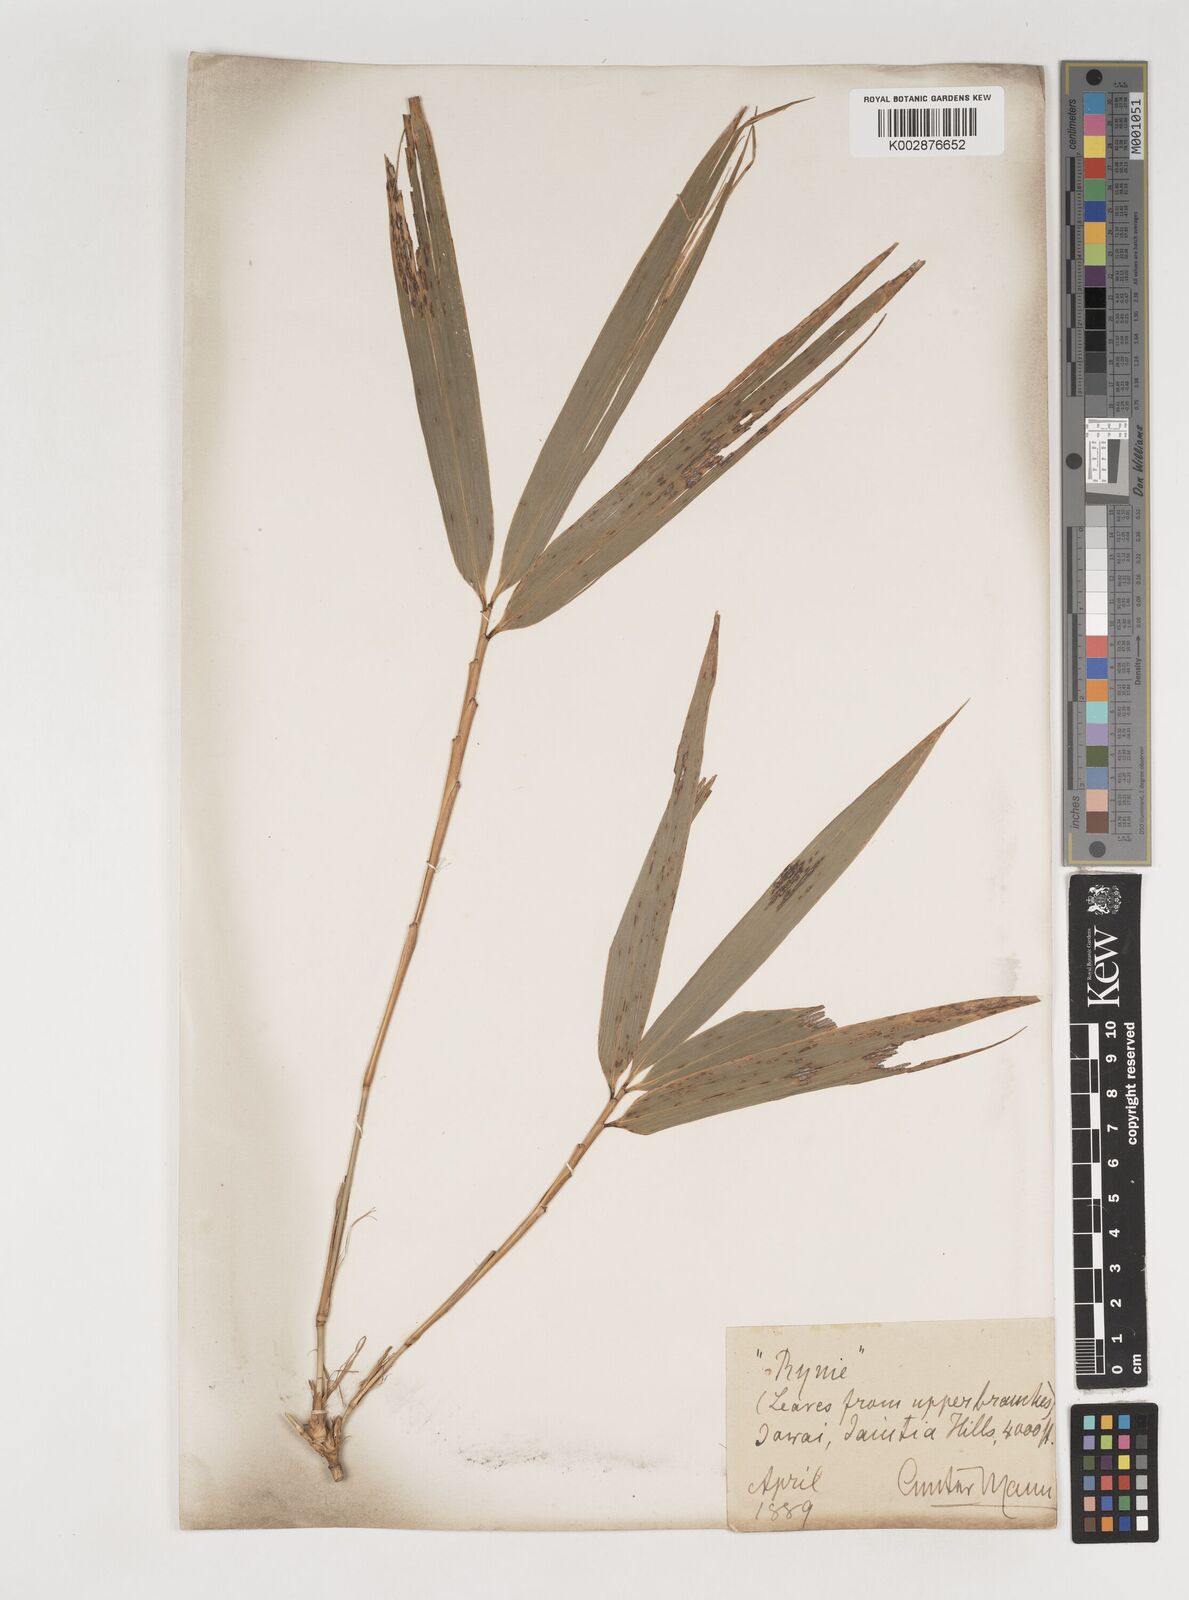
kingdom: Plantae
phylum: Tracheophyta
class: Liliopsida
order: Poales
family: Poaceae
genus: Bambusa
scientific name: Bambusa nutans
